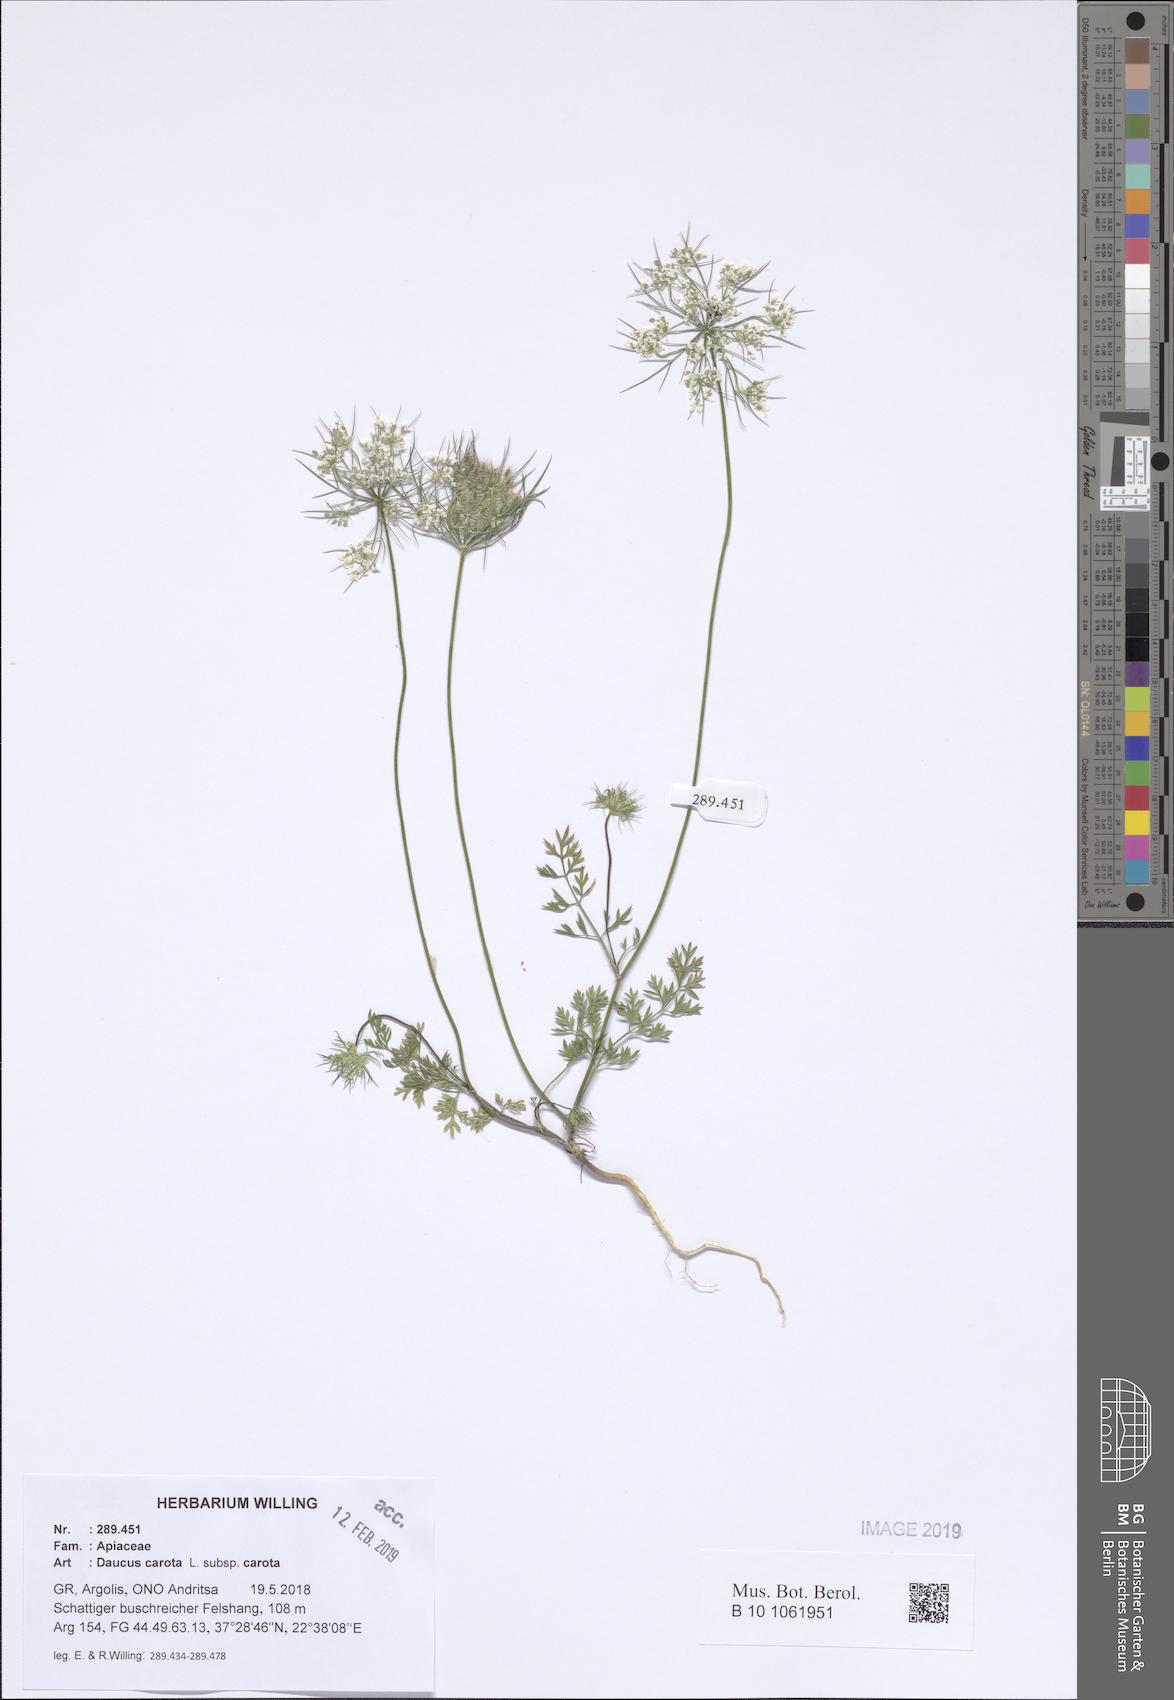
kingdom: Plantae
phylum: Tracheophyta
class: Magnoliopsida
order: Apiales
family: Apiaceae
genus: Daucus
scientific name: Daucus carota
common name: Wild carrot
